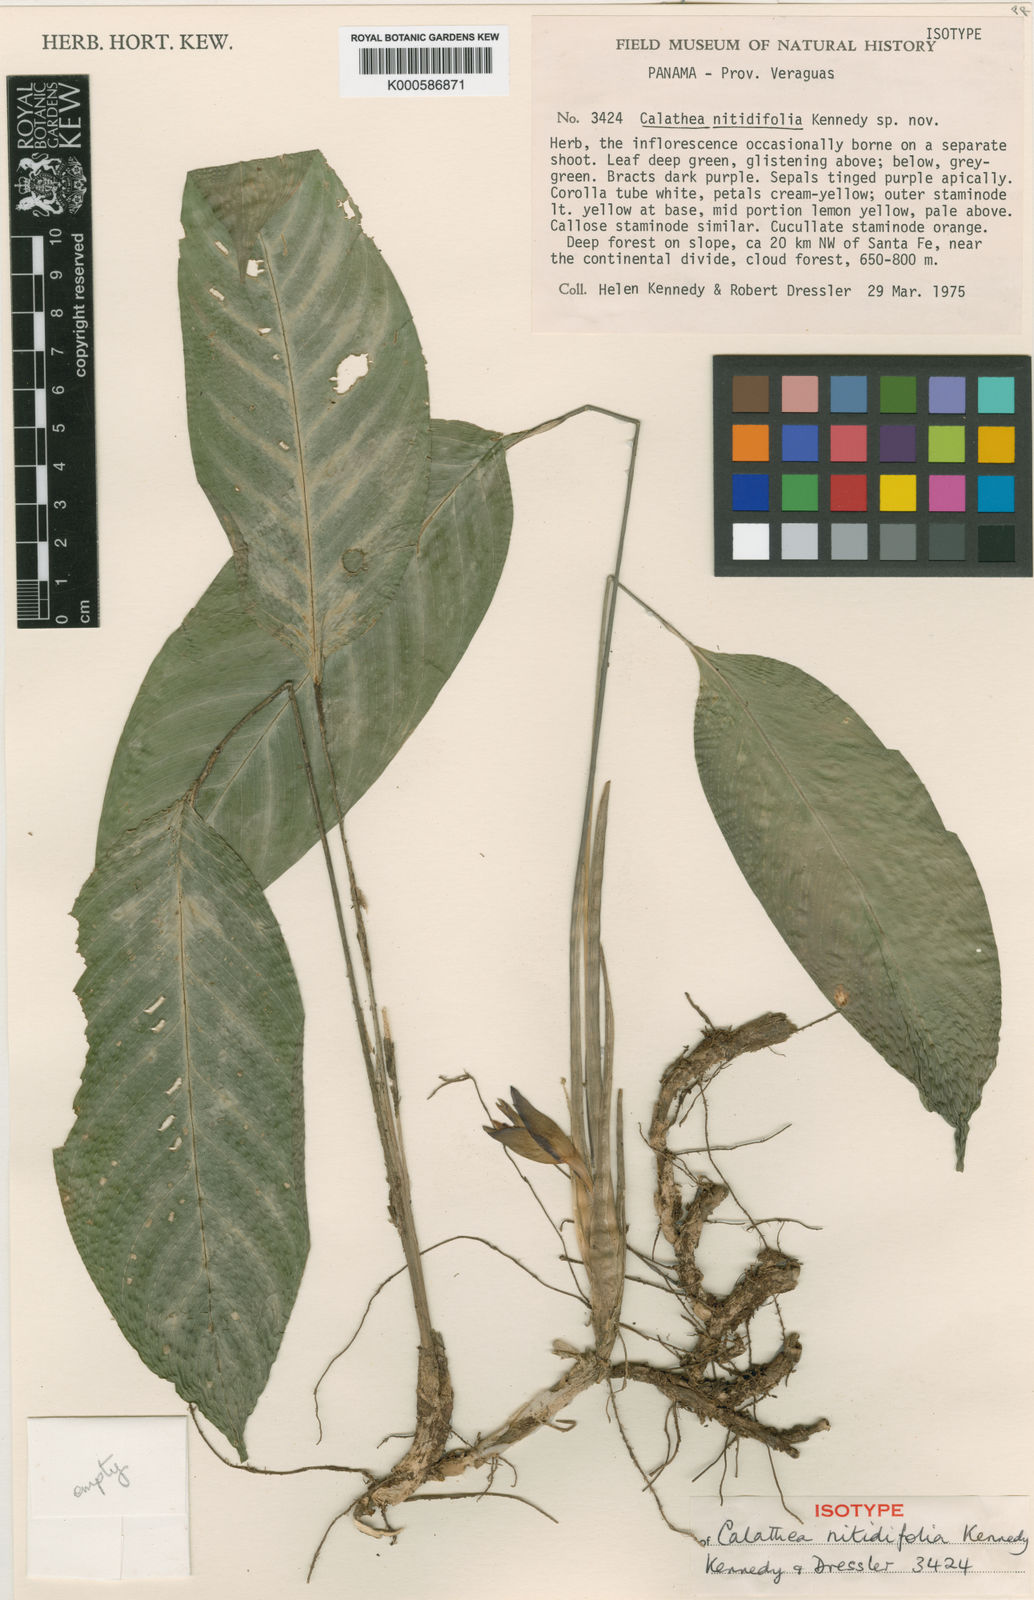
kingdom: Plantae
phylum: Tracheophyta
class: Liliopsida
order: Zingiberales
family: Marantaceae
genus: Goeppertia
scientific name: Goeppertia nitidifolia
